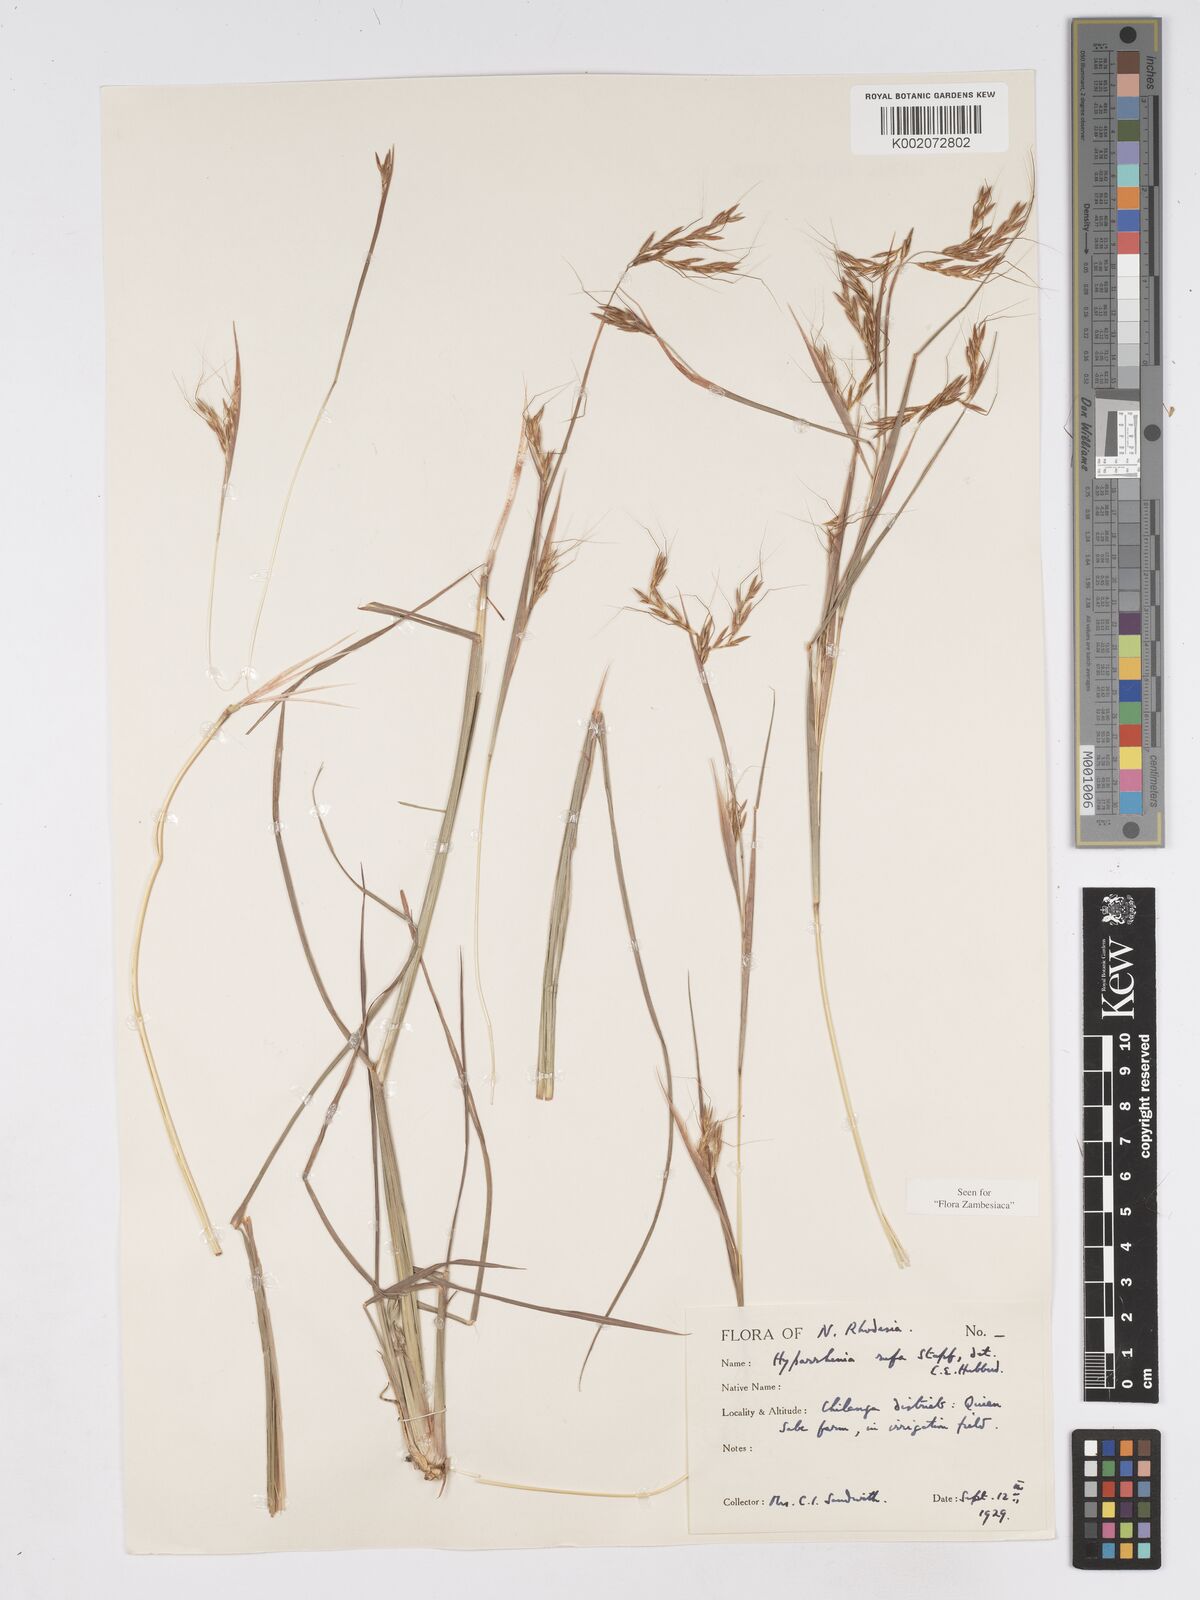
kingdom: Plantae
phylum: Tracheophyta
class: Liliopsida
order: Poales
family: Poaceae
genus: Hyparrhenia
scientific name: Hyparrhenia rufa
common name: Jaraguagrass
